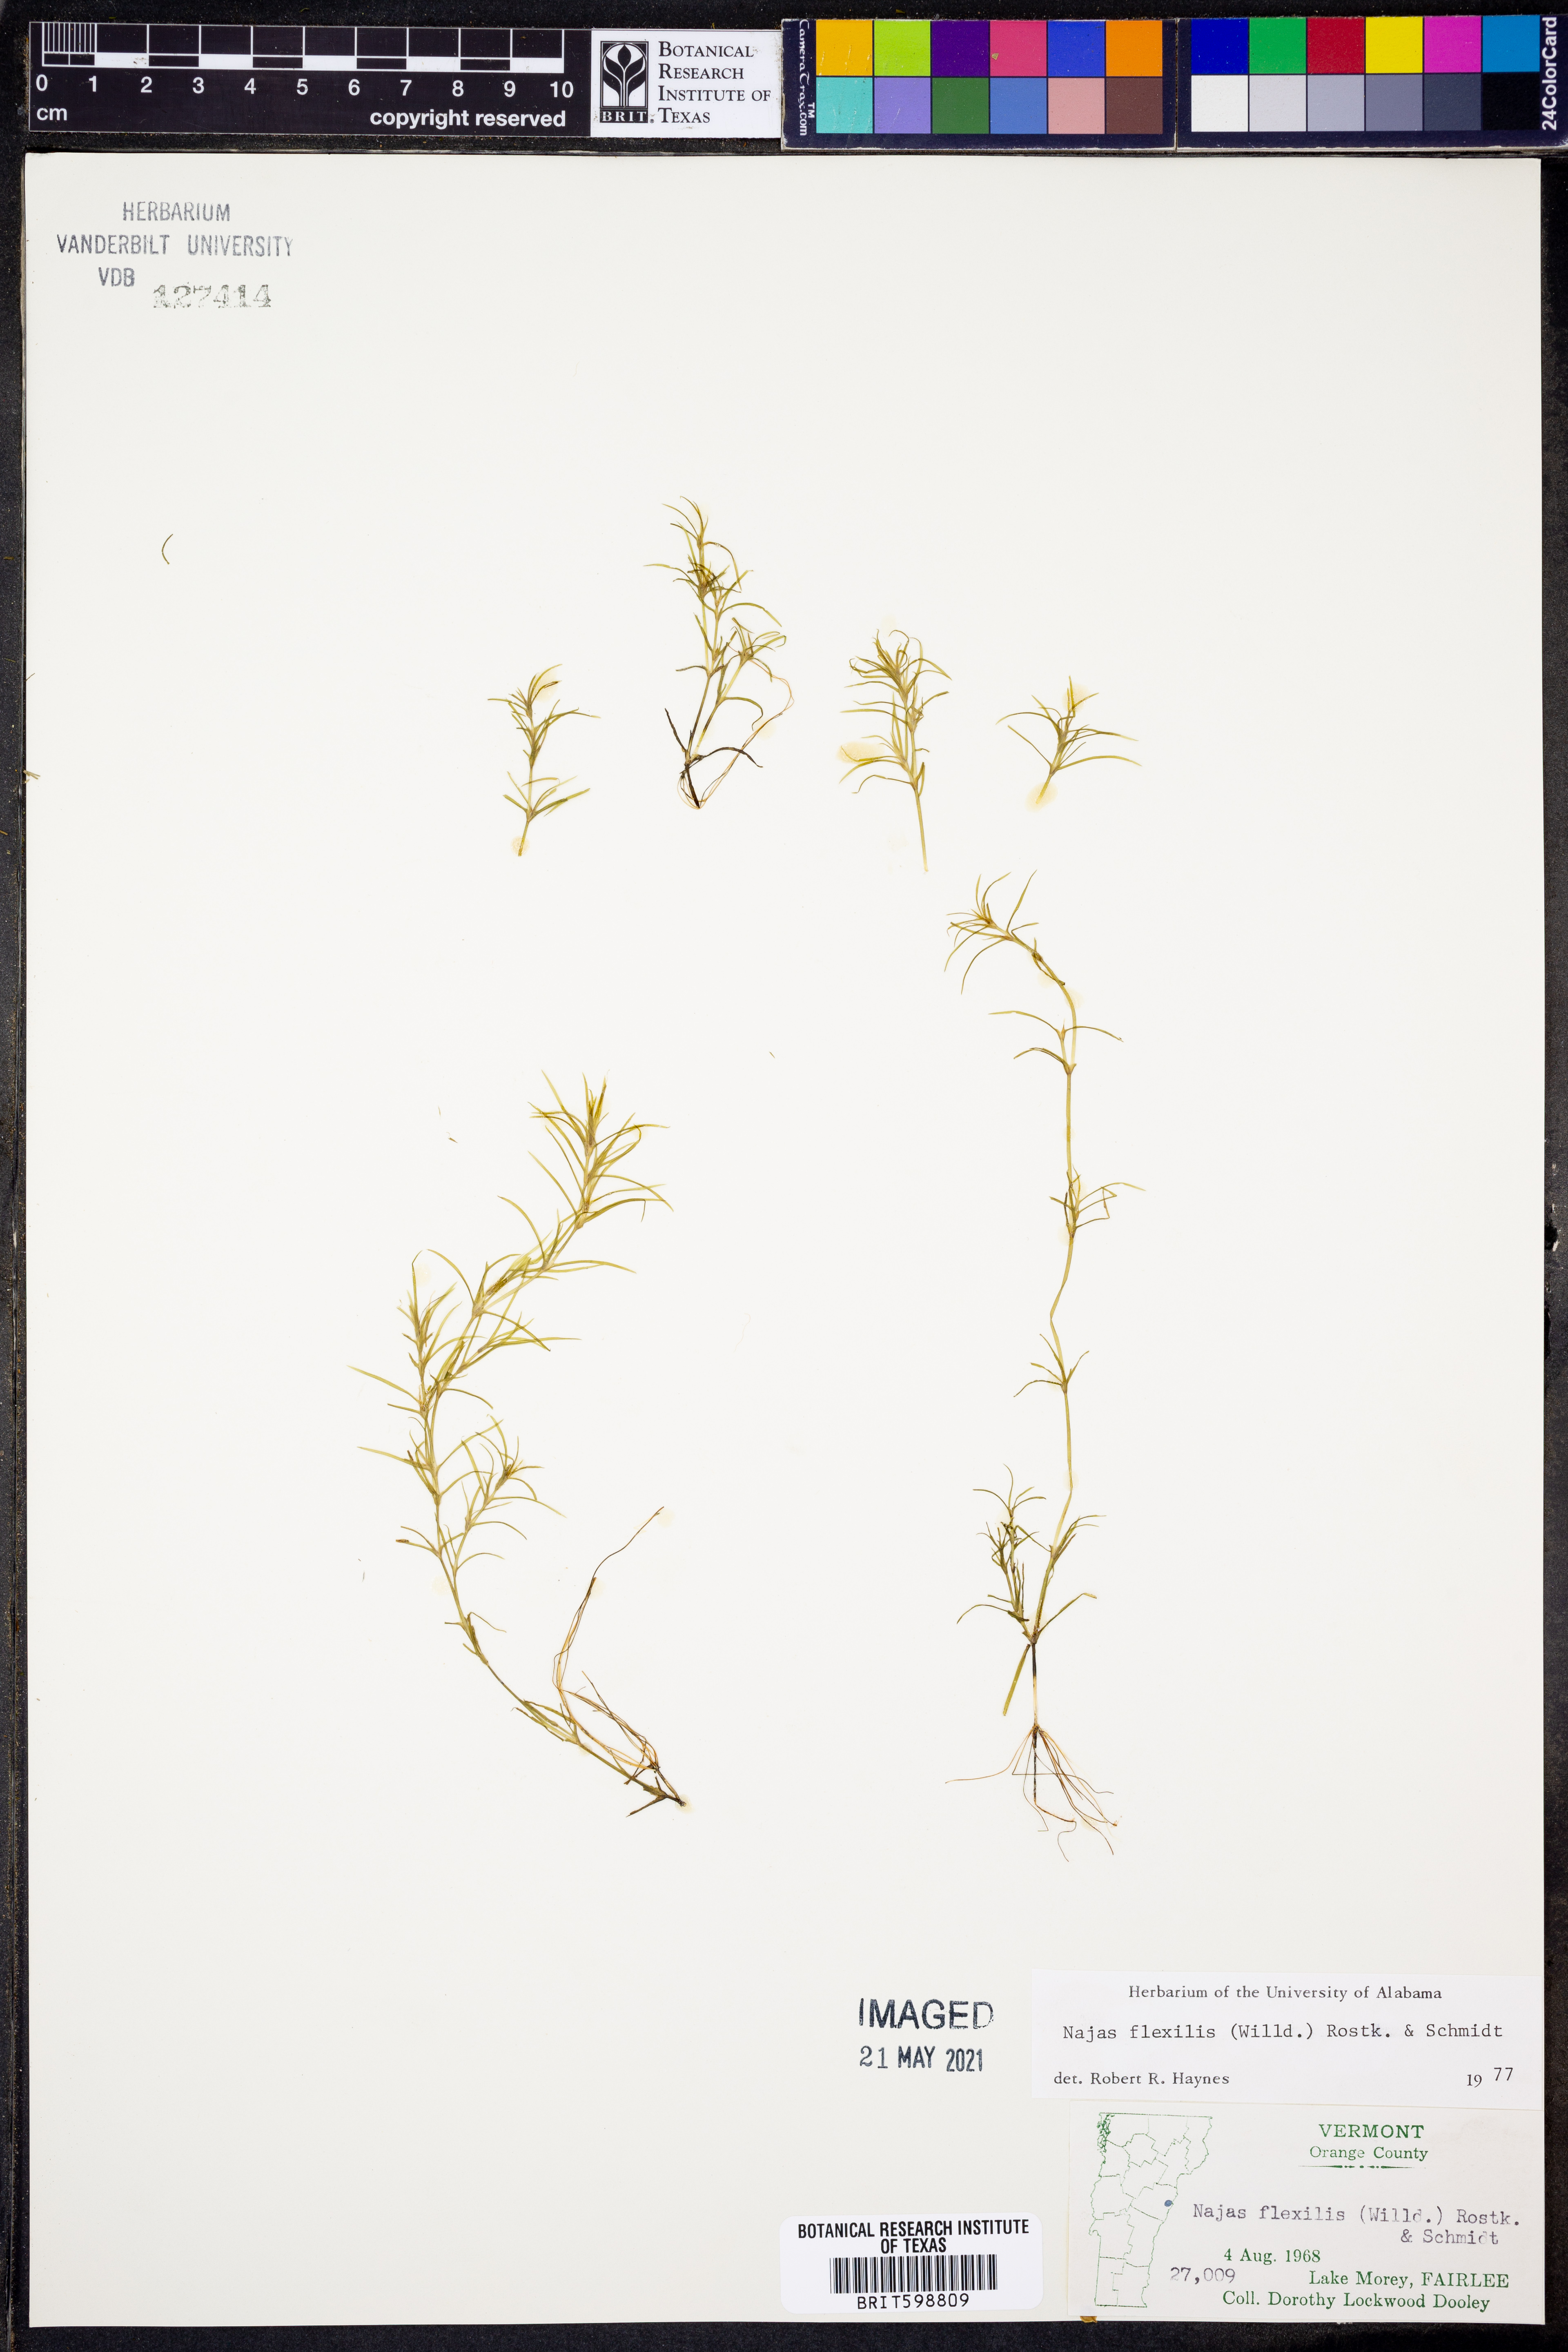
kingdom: Plantae
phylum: Tracheophyta
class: Liliopsida
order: Alismatales
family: Hydrocharitaceae
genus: Najas
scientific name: Najas flexilis
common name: Slender naiad
